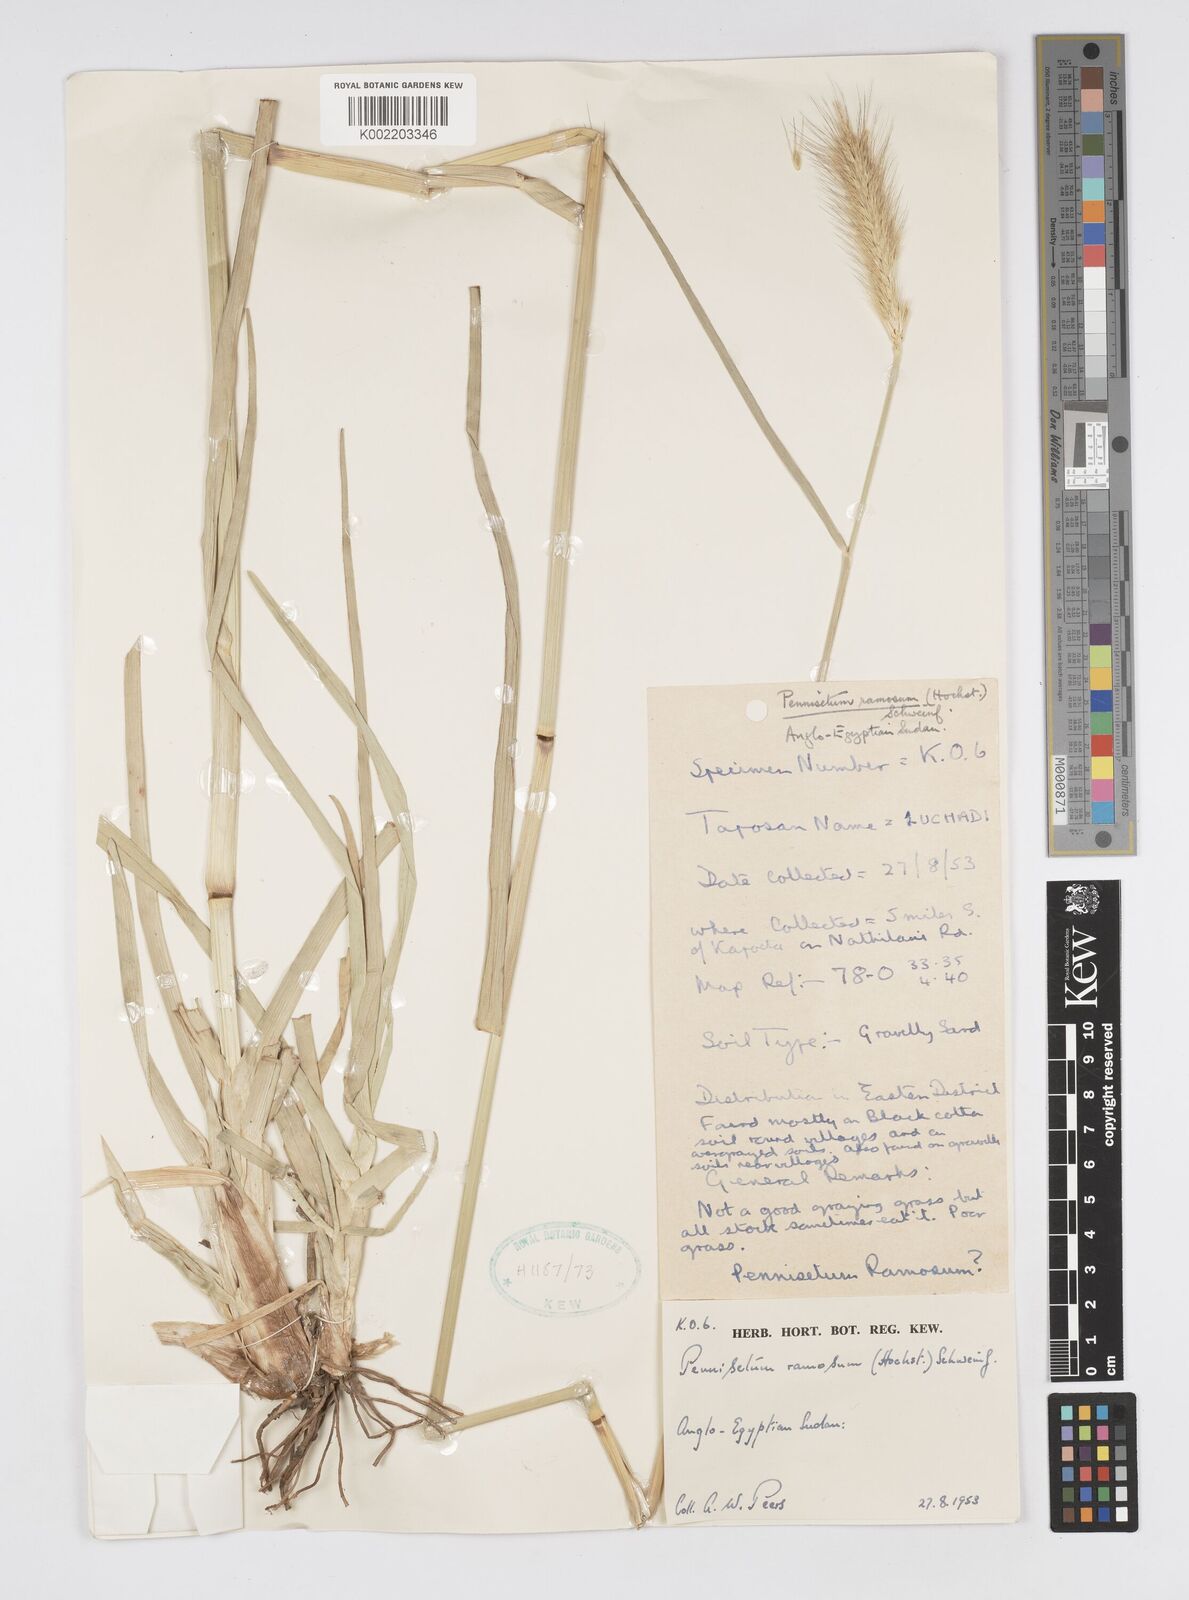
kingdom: Plantae
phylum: Tracheophyta
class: Liliopsida
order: Poales
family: Poaceae
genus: Cenchrus
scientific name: Cenchrus ramosus
